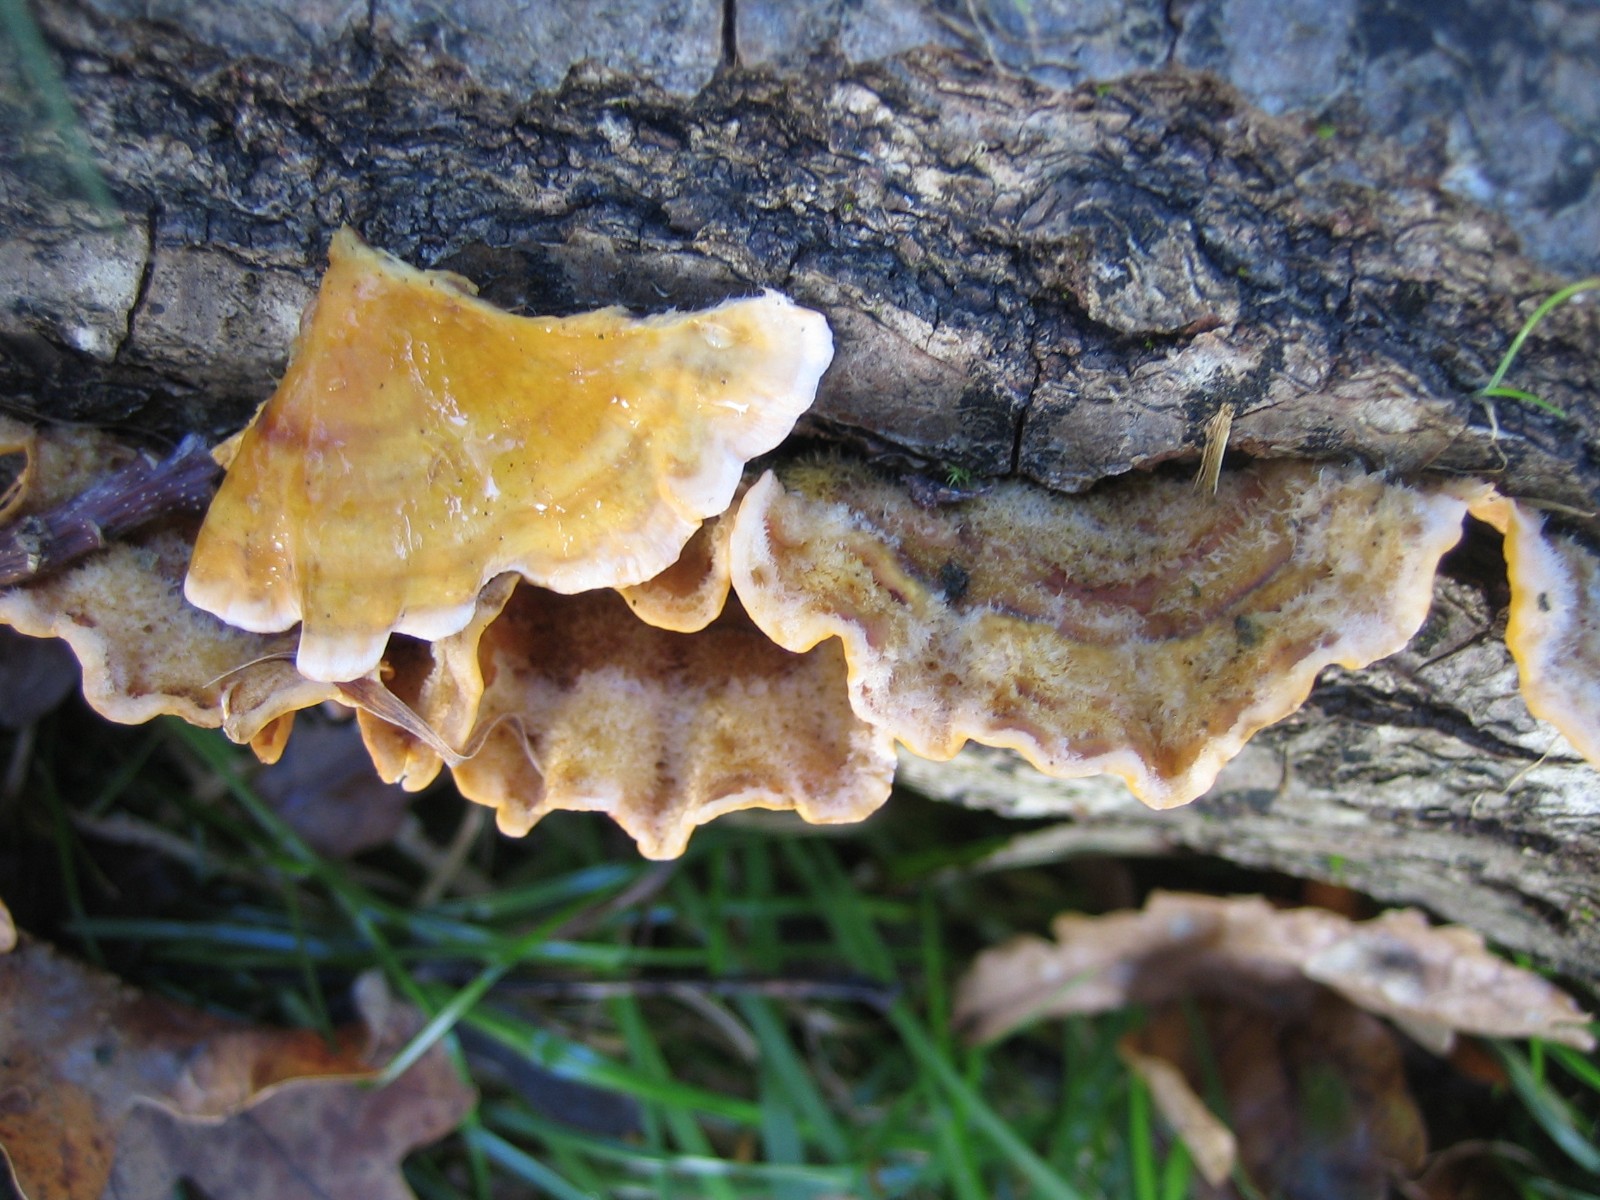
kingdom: Fungi
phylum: Basidiomycota
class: Agaricomycetes
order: Russulales
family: Stereaceae
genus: Stereum
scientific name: Stereum hirsutum
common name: håret lædersvamp
